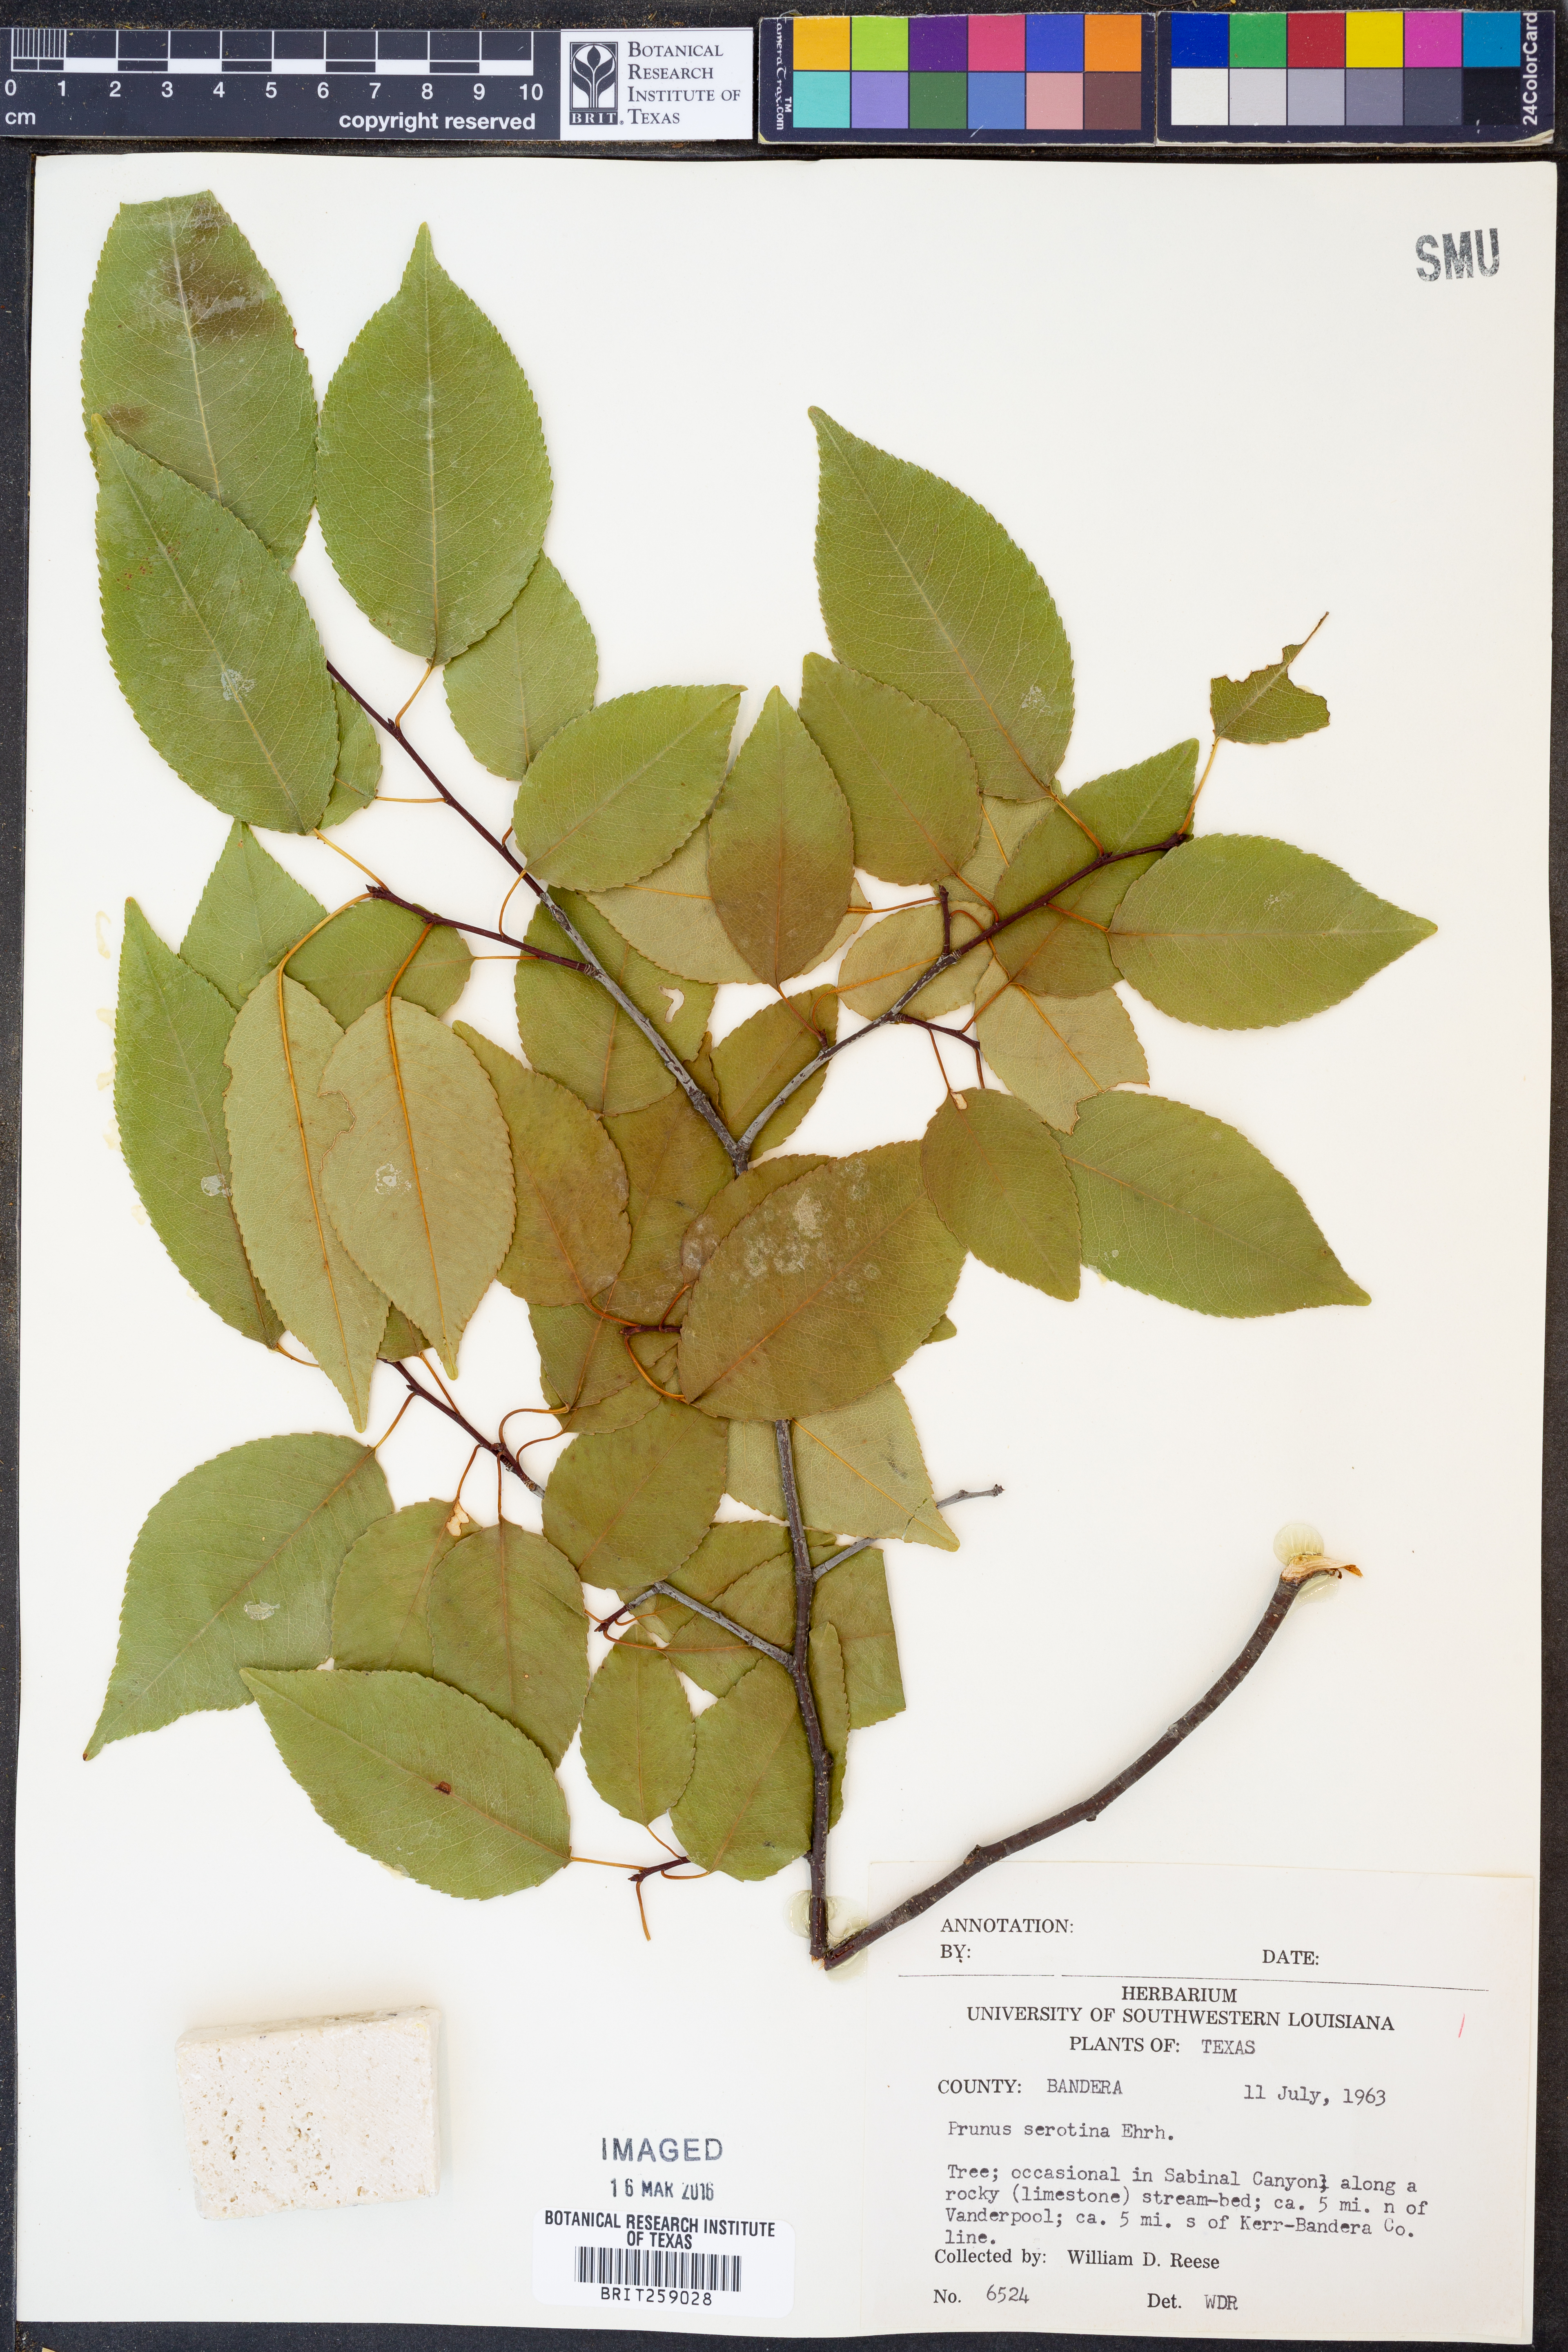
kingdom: Plantae
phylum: Tracheophyta
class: Magnoliopsida
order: Rosales
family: Rosaceae
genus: Prunus
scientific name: Prunus serotina
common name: Black cherry
